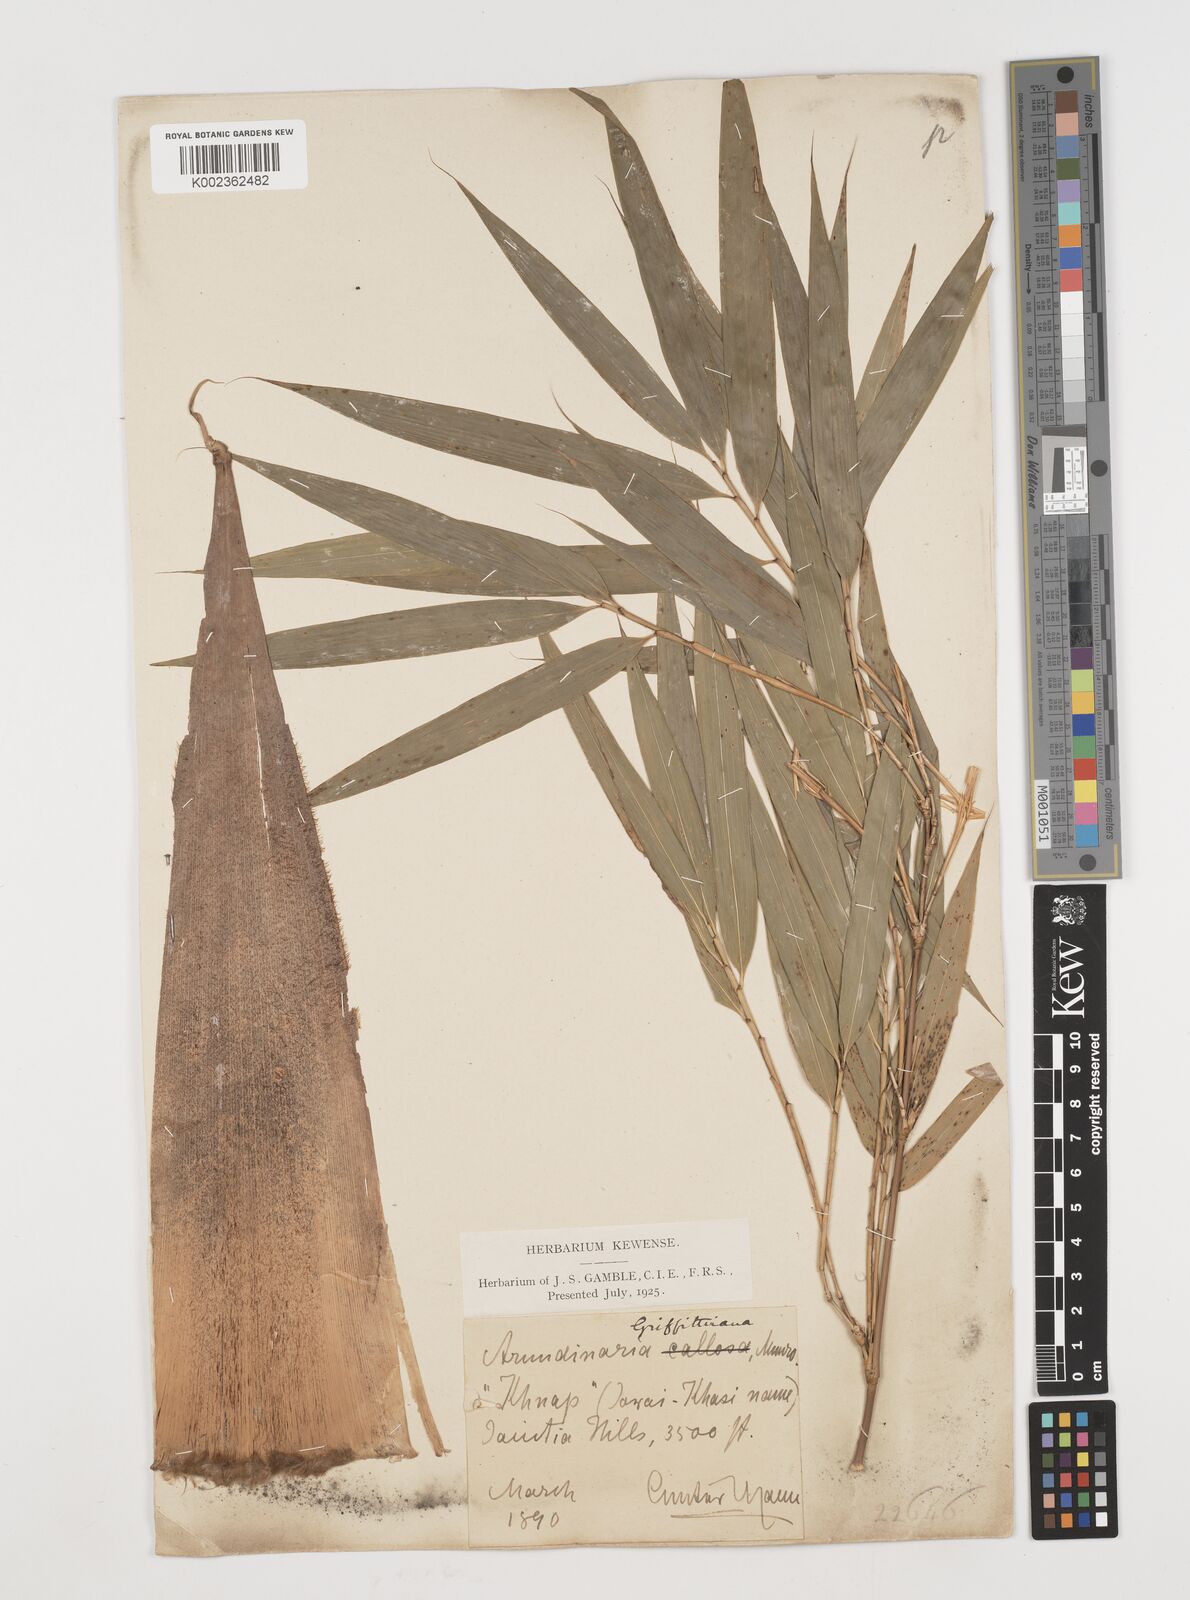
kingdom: Plantae
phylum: Tracheophyta
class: Liliopsida
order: Poales
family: Poaceae
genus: Chimonocalamus
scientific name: Chimonocalamus griffithianus
